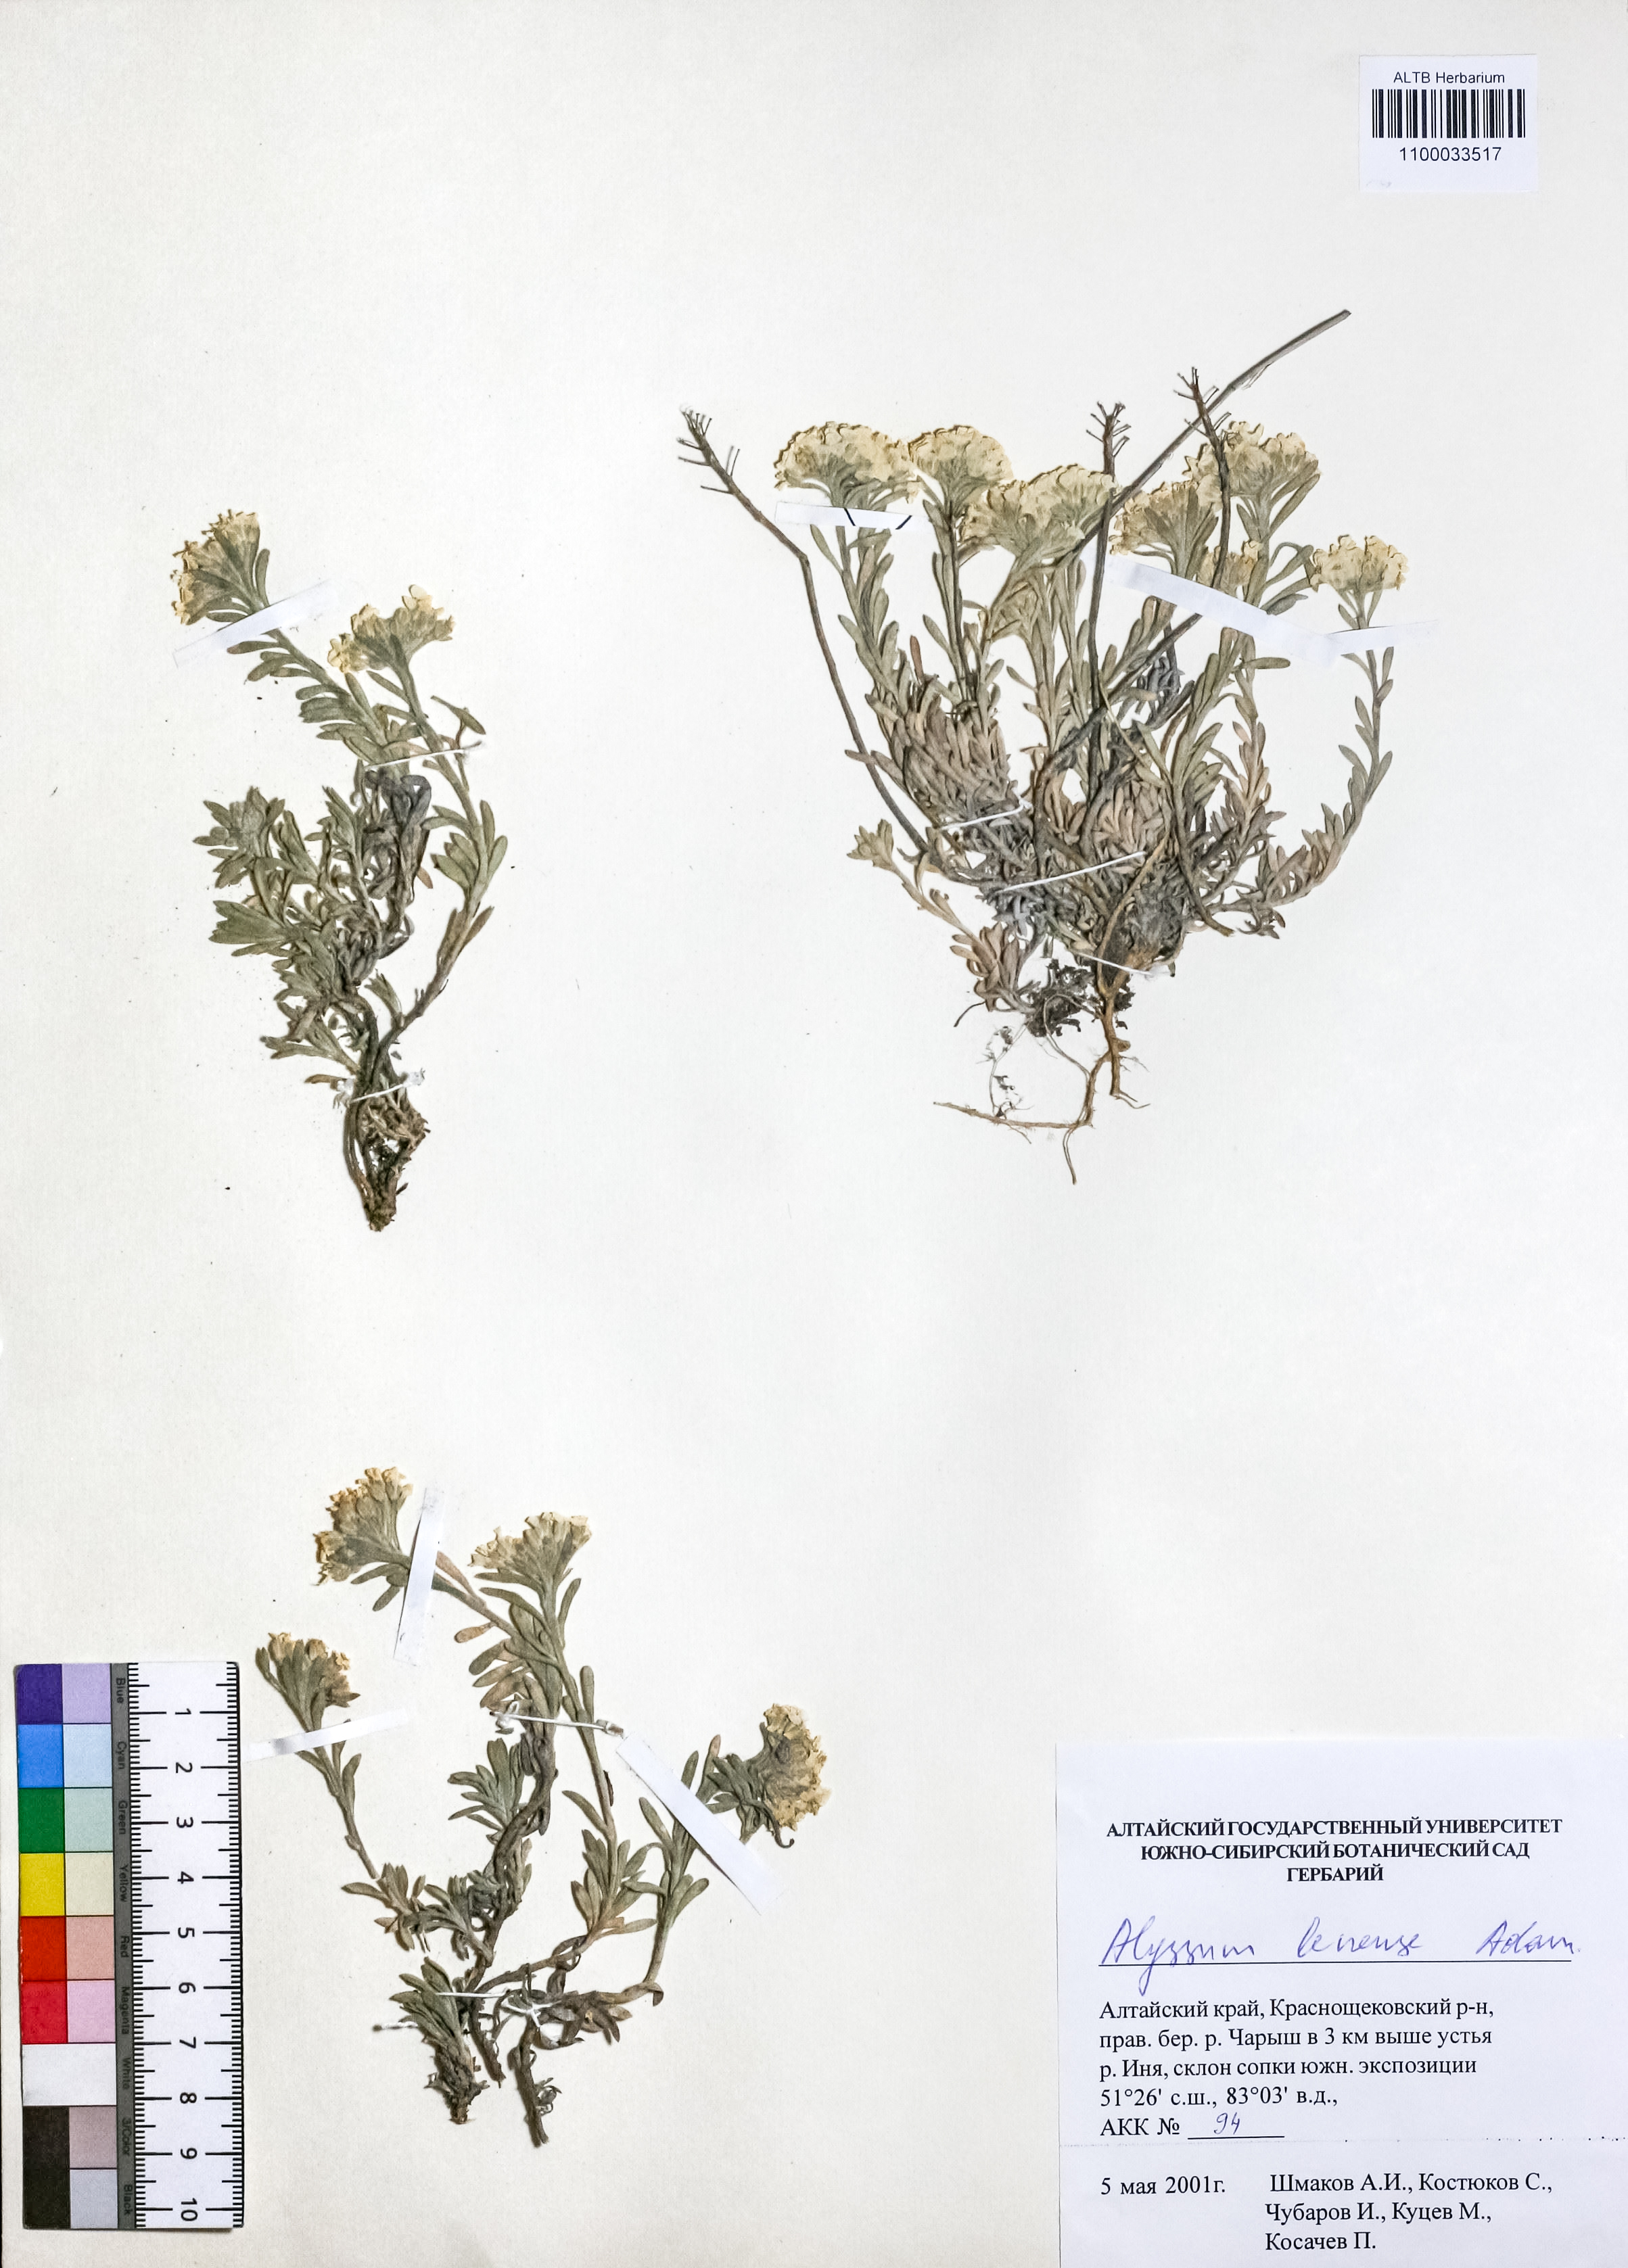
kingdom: Plantae
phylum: Tracheophyta
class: Magnoliopsida
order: Brassicales
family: Brassicaceae
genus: Alyssum
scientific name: Alyssum lenense
